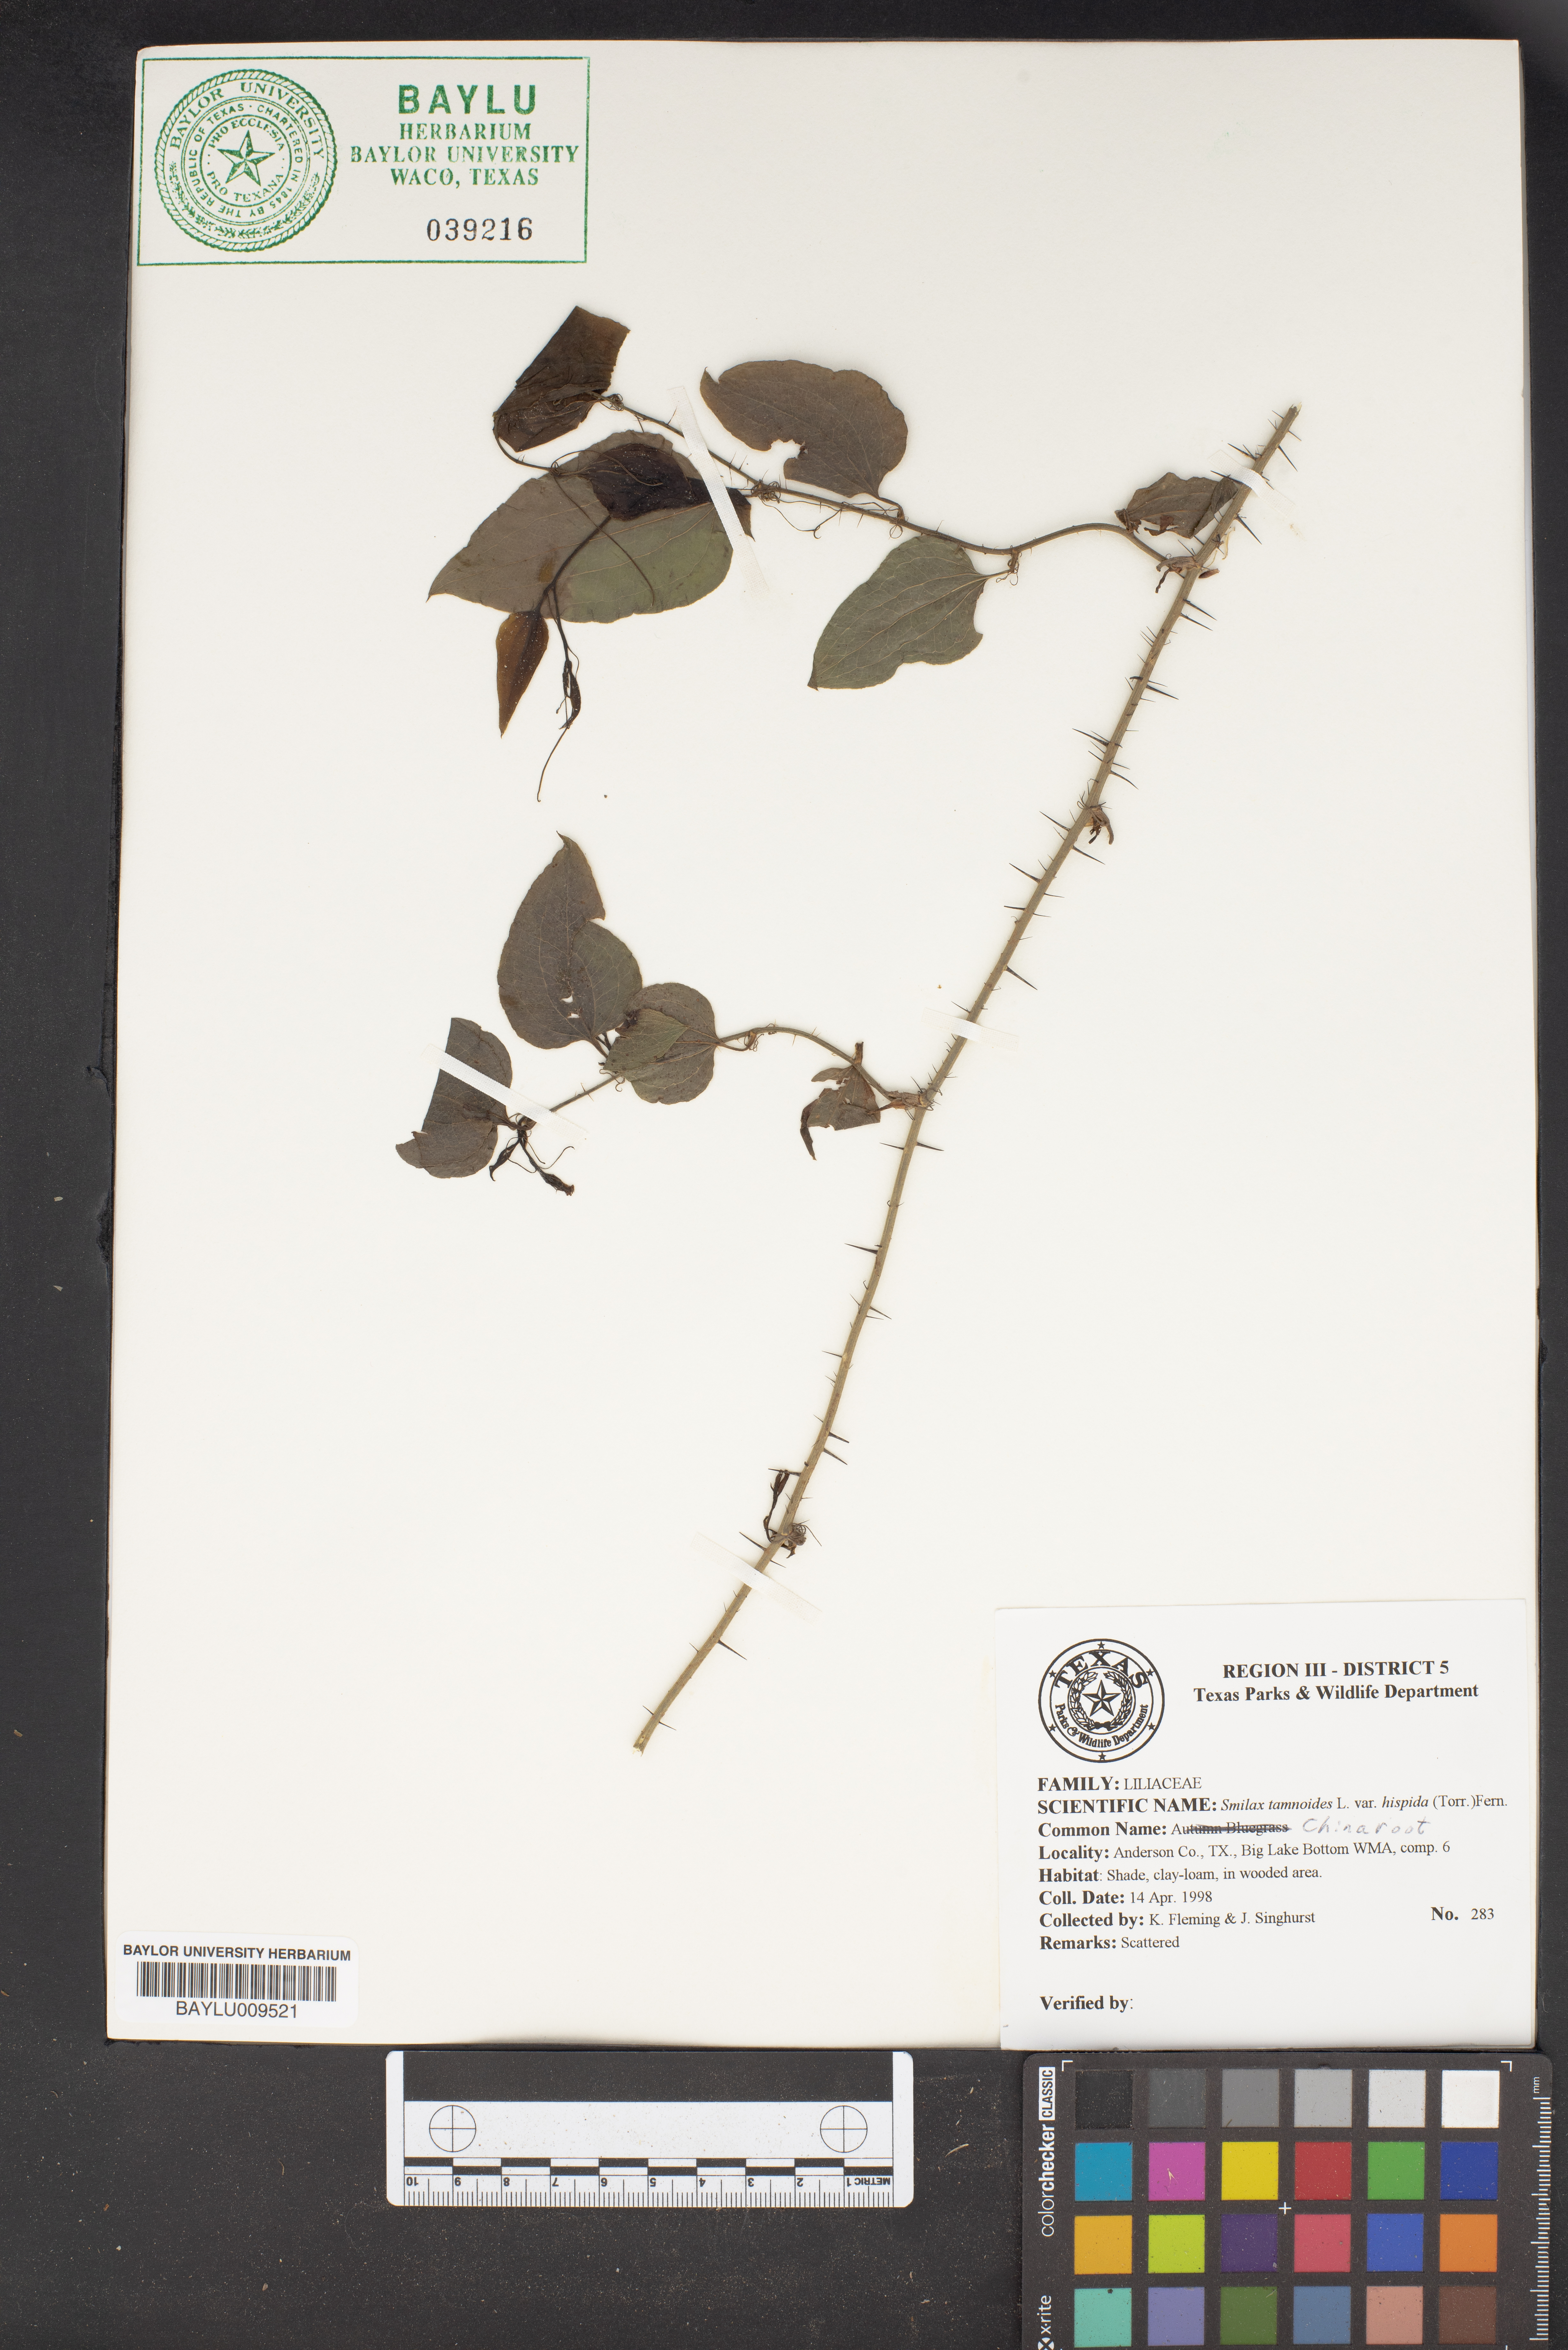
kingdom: Plantae
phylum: Tracheophyta
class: Liliopsida
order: Liliales
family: Smilacaceae
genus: Smilax
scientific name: Smilax tamnoides
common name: Hellfetter
